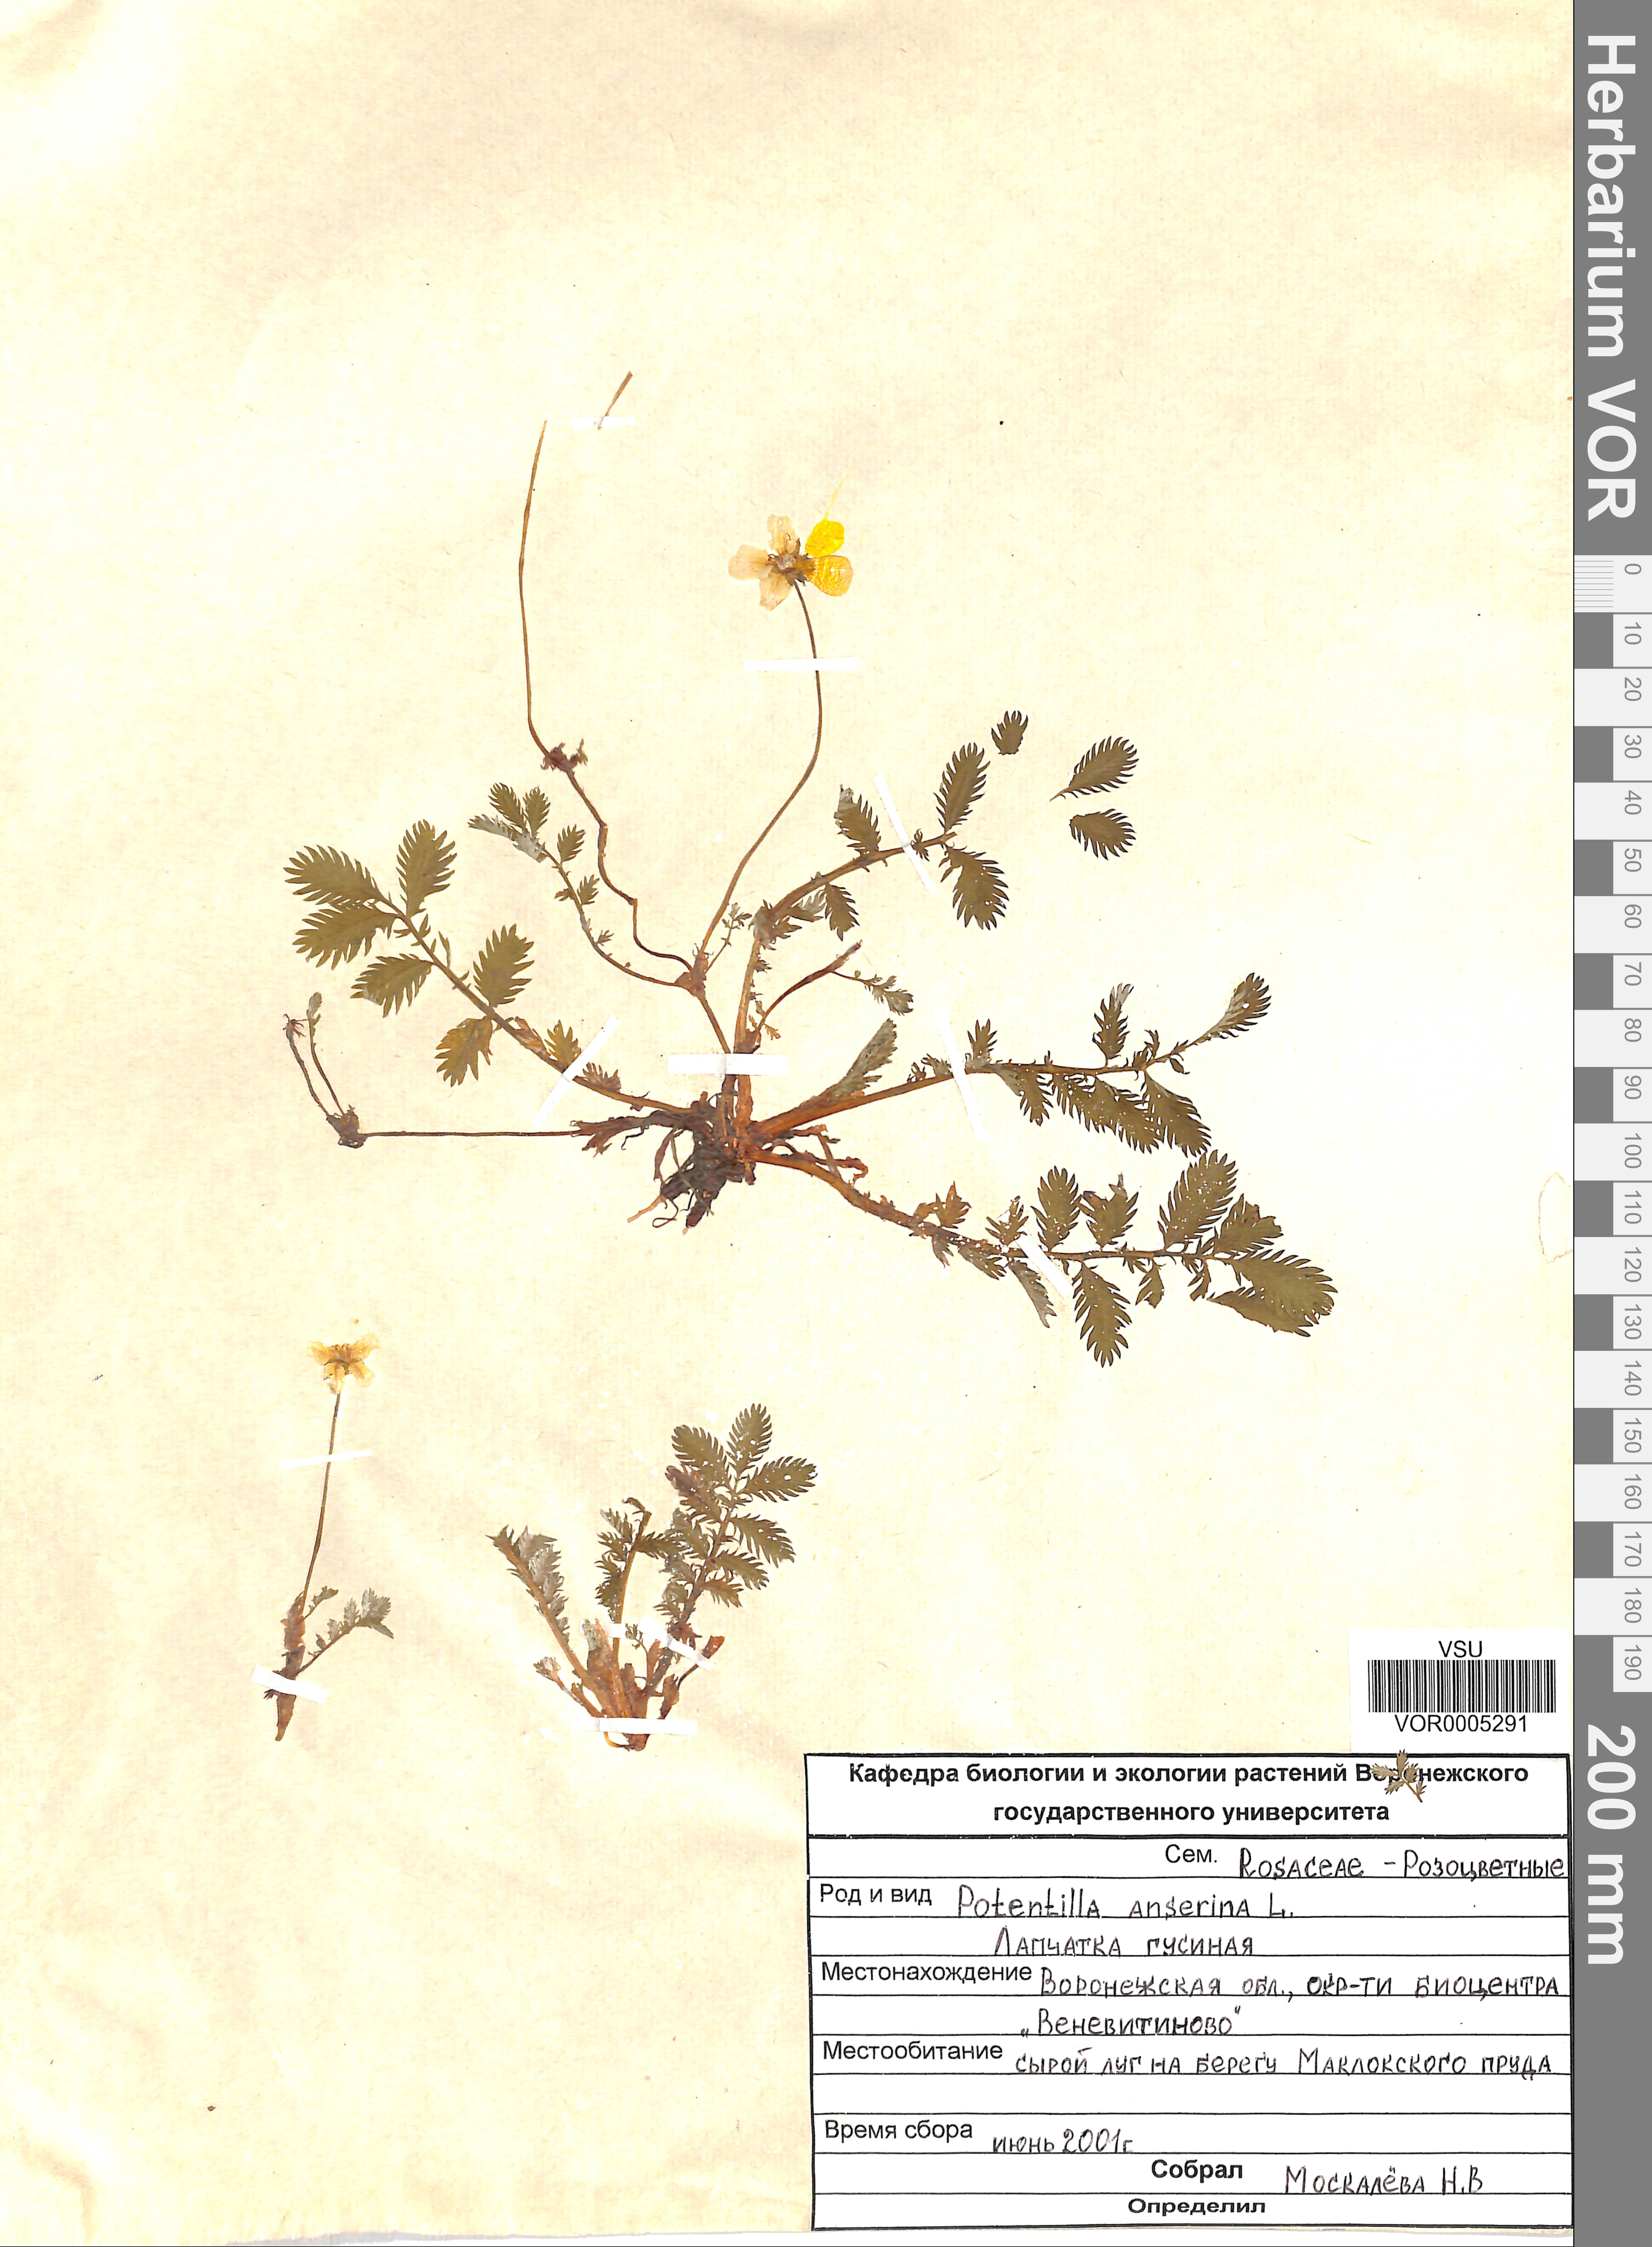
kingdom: Plantae
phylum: Tracheophyta
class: Magnoliopsida
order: Rosales
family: Rosaceae
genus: Argentina
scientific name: Argentina anserina
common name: Common silverweed
